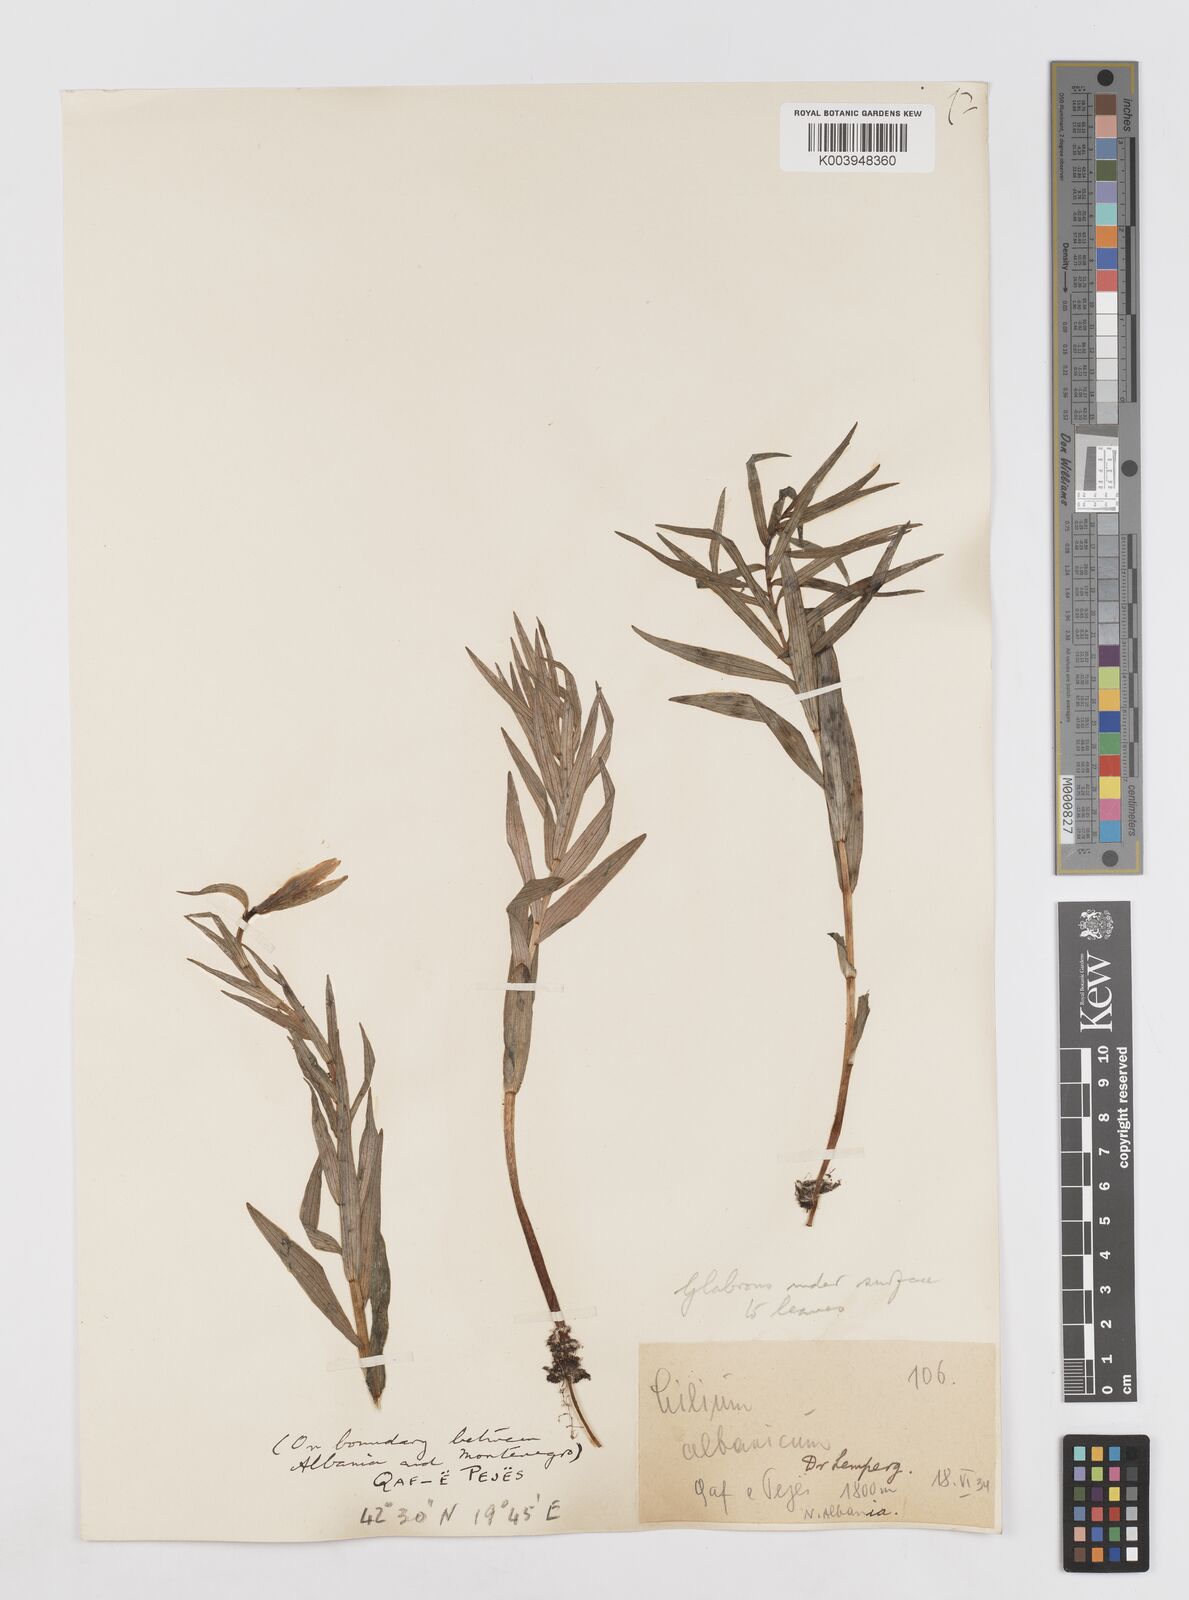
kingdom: Plantae
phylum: Tracheophyta
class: Liliopsida
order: Liliales
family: Liliaceae
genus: Lilium
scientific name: Lilium albanicum
